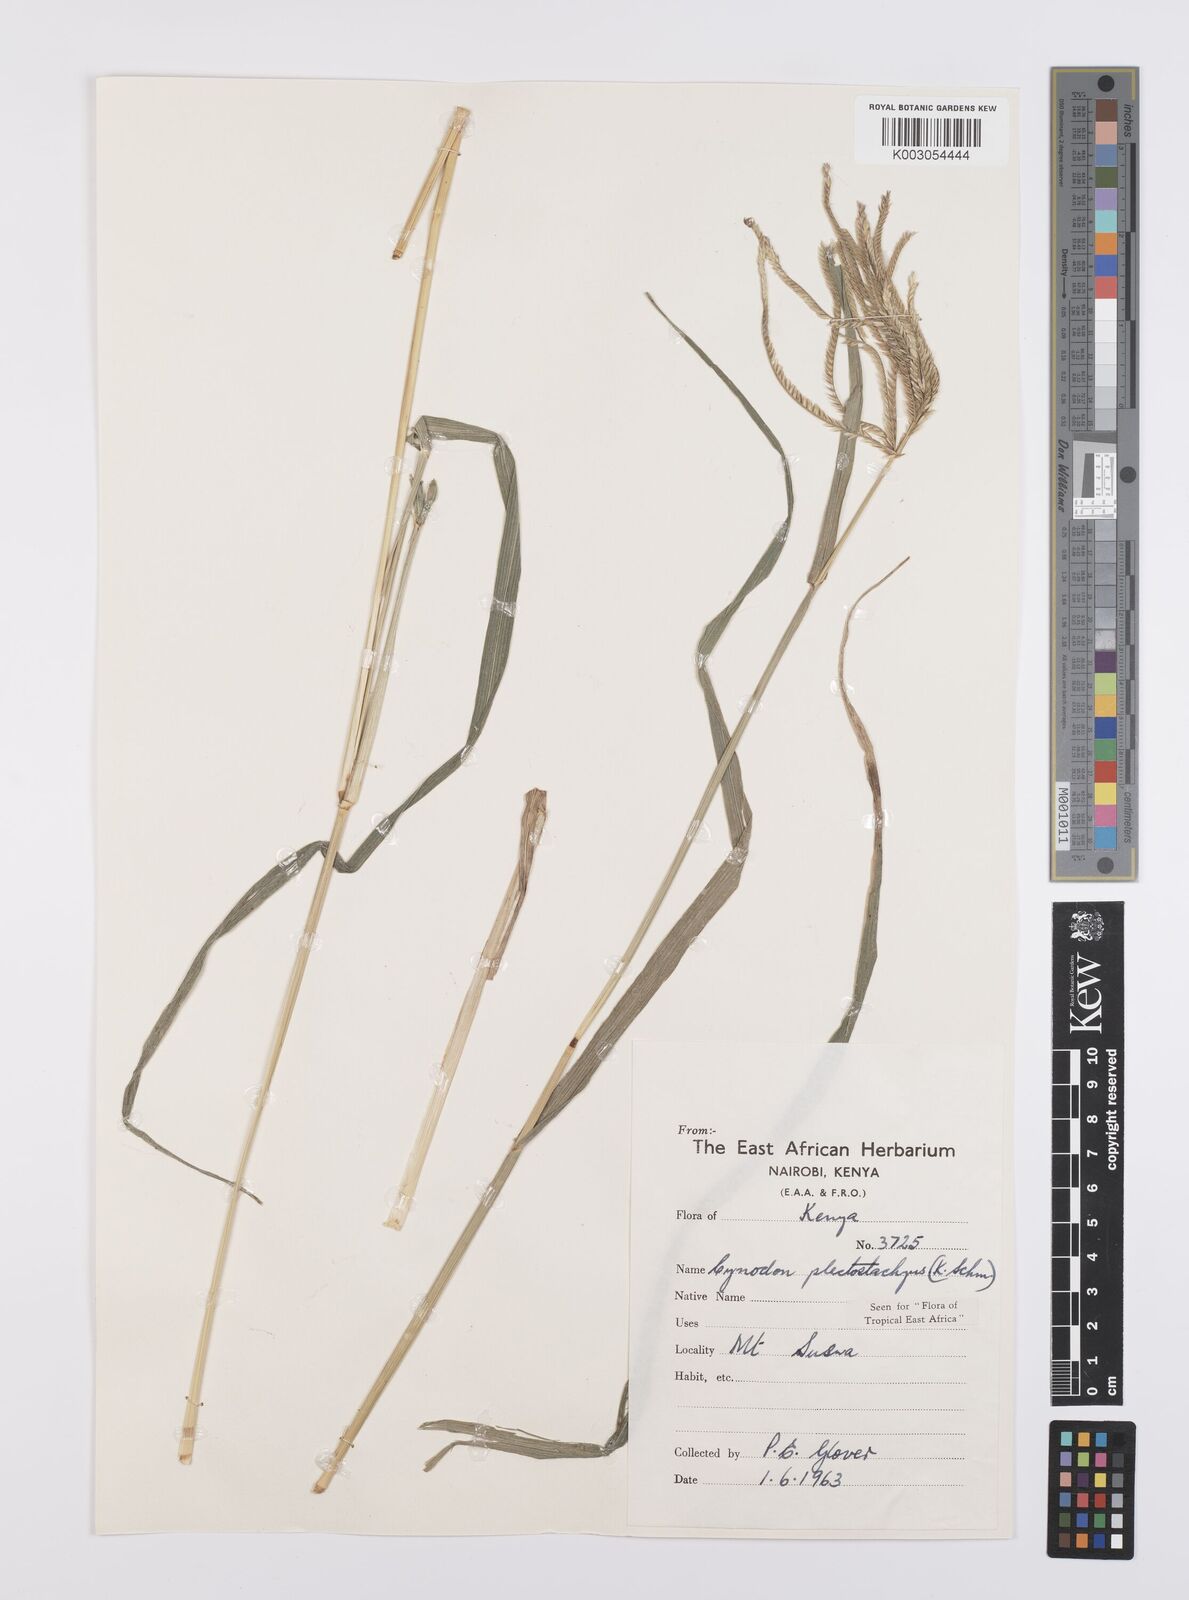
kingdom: Plantae
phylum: Tracheophyta
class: Liliopsida
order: Poales
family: Poaceae
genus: Cynodon
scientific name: Cynodon plectostachyus
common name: Stargrass
